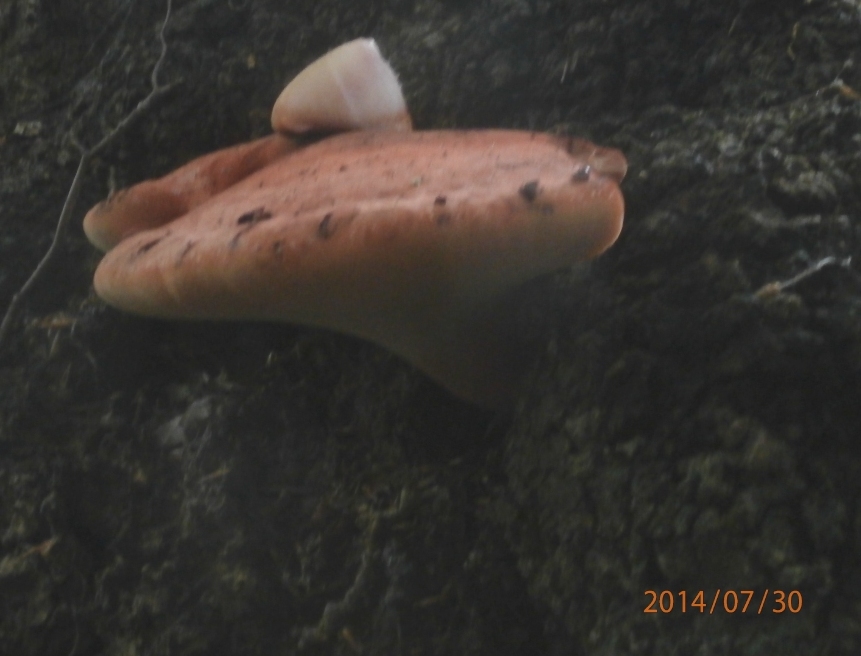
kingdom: Fungi
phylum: Basidiomycota
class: Agaricomycetes
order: Agaricales
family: Fistulinaceae
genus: Fistulina
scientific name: Fistulina hepatica
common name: oksetunge
